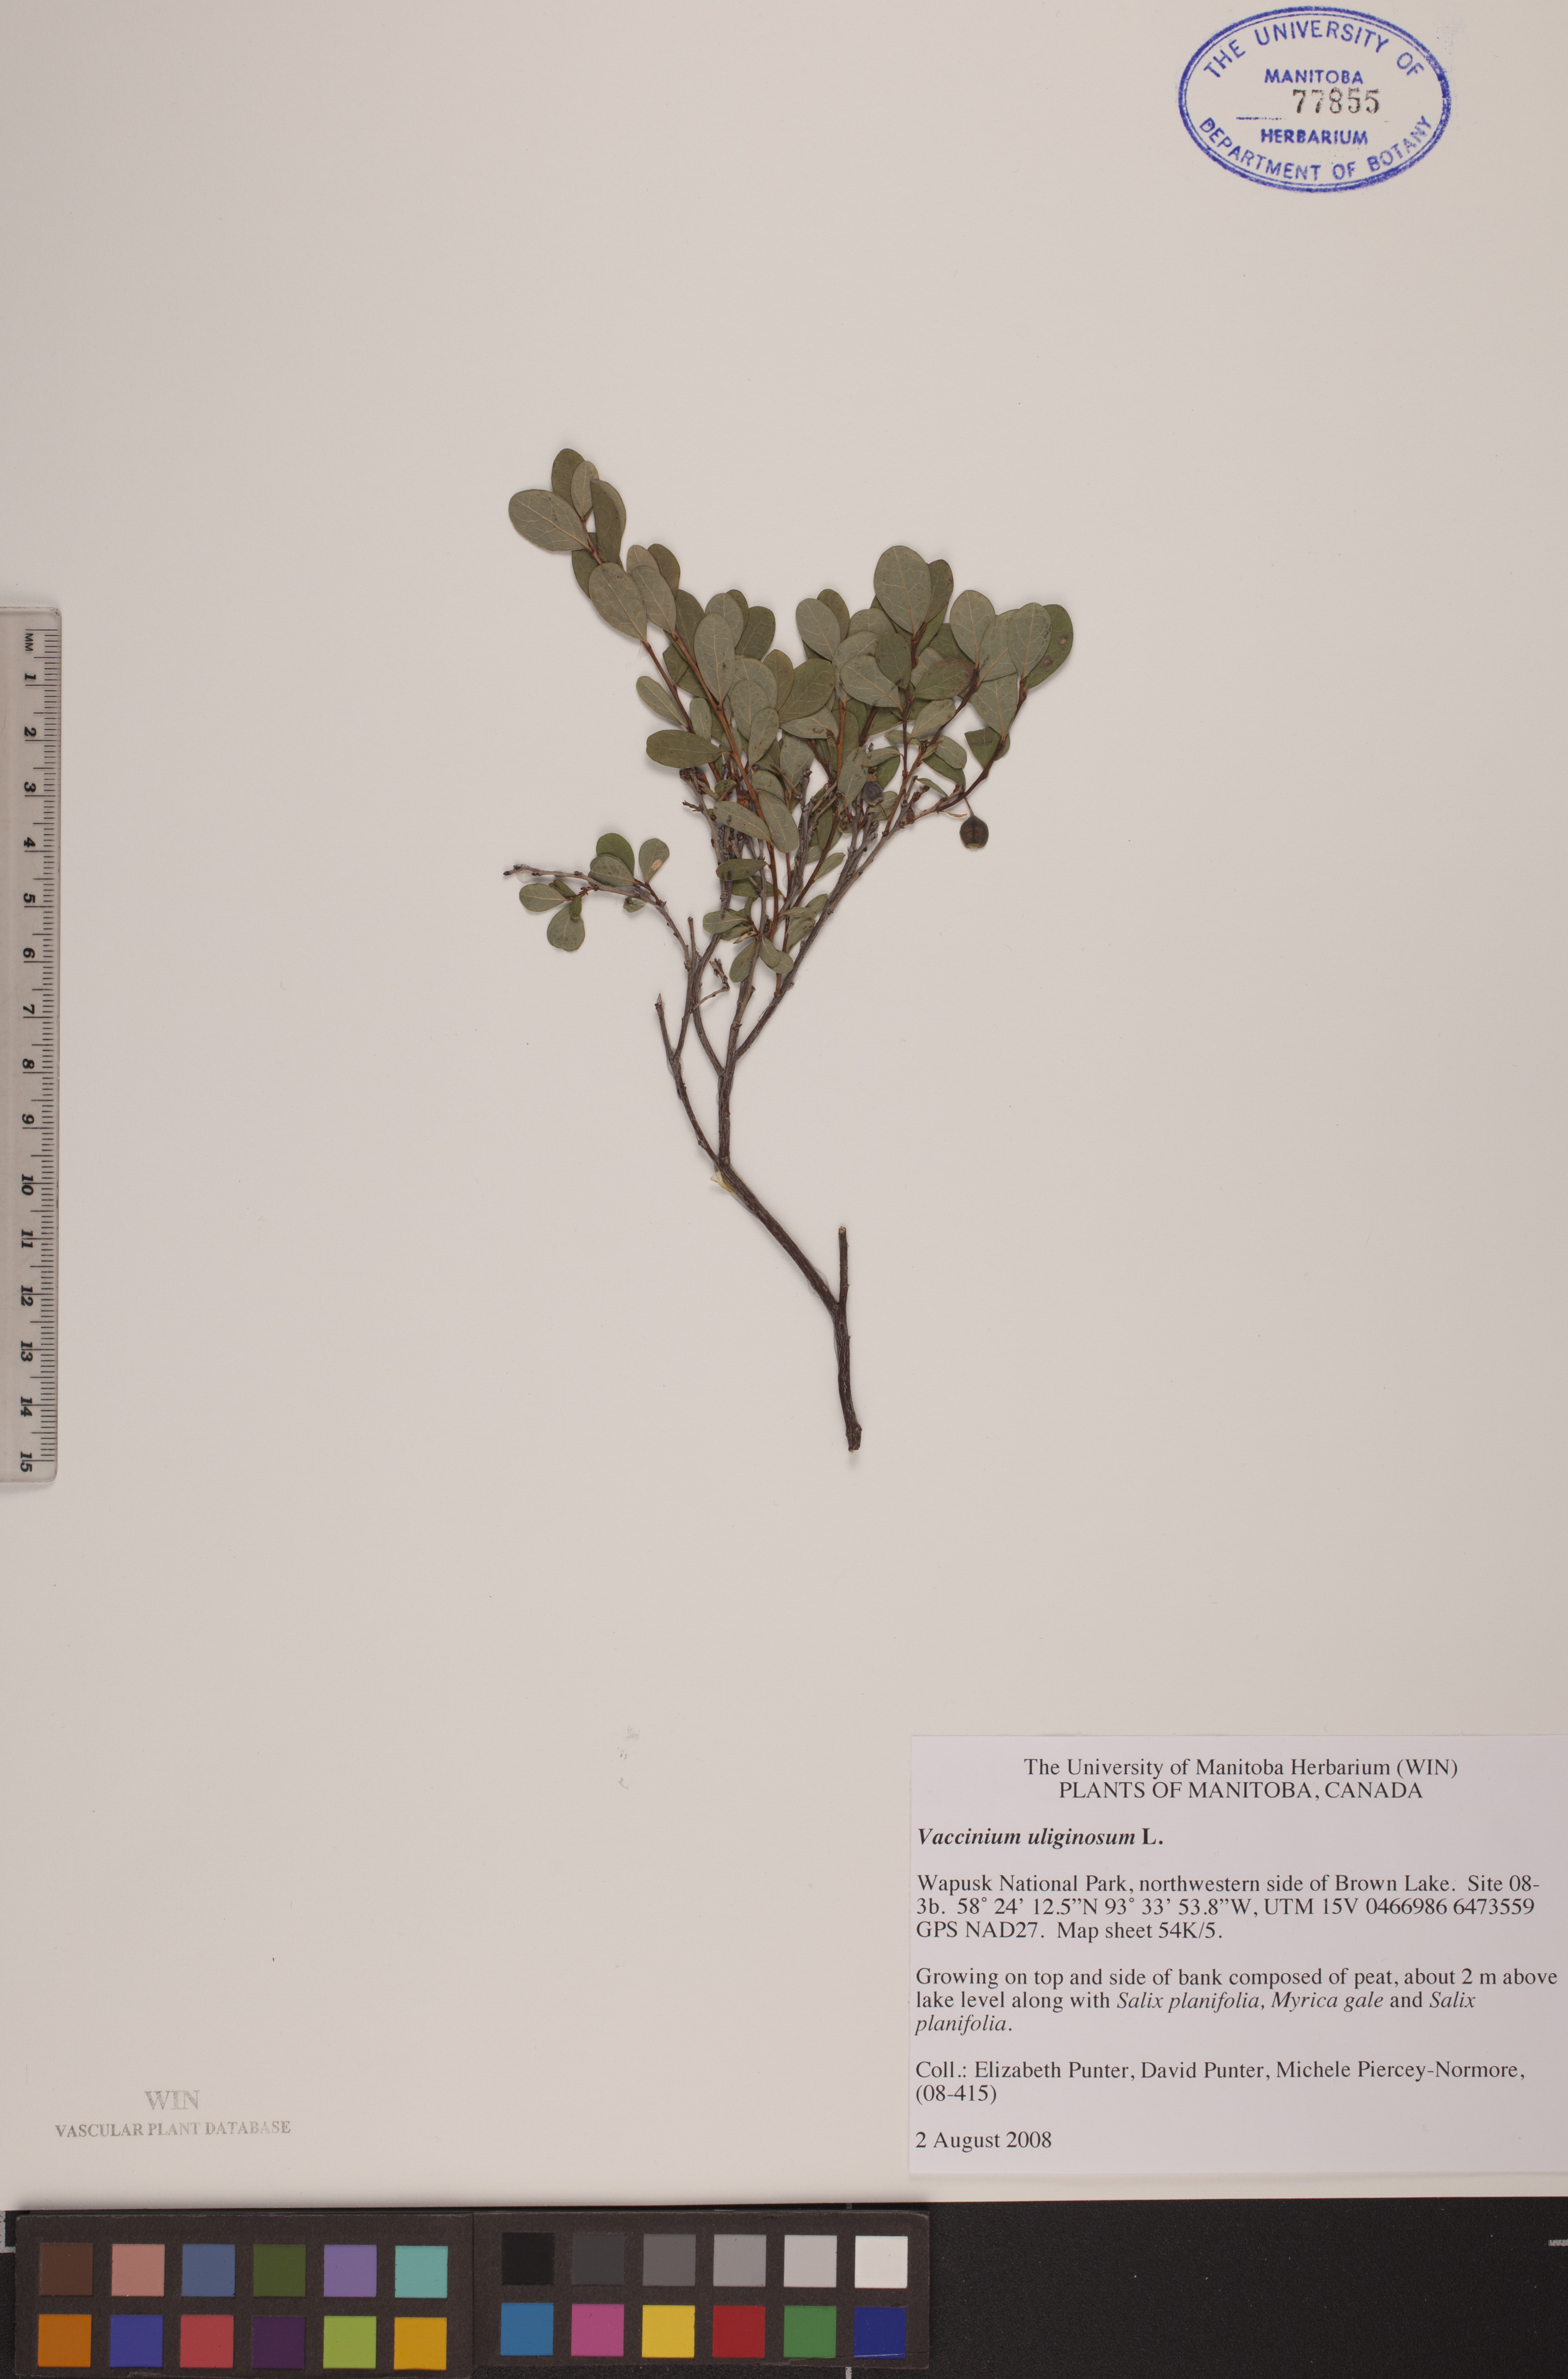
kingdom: Plantae
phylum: Tracheophyta
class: Magnoliopsida
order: Ericales
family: Ericaceae
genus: Vaccinium
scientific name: Vaccinium uliginosum
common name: Bog bilberry
